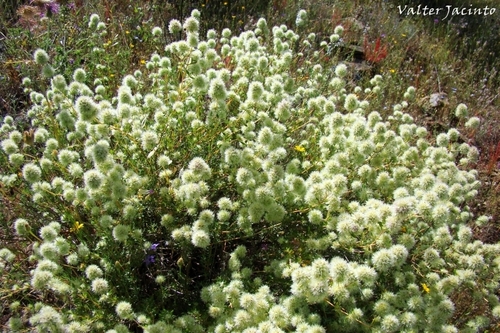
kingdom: Plantae
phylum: Tracheophyta
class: Magnoliopsida
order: Lamiales
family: Lamiaceae
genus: Thymus
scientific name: Thymus mastichina
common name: Mastic thyme
